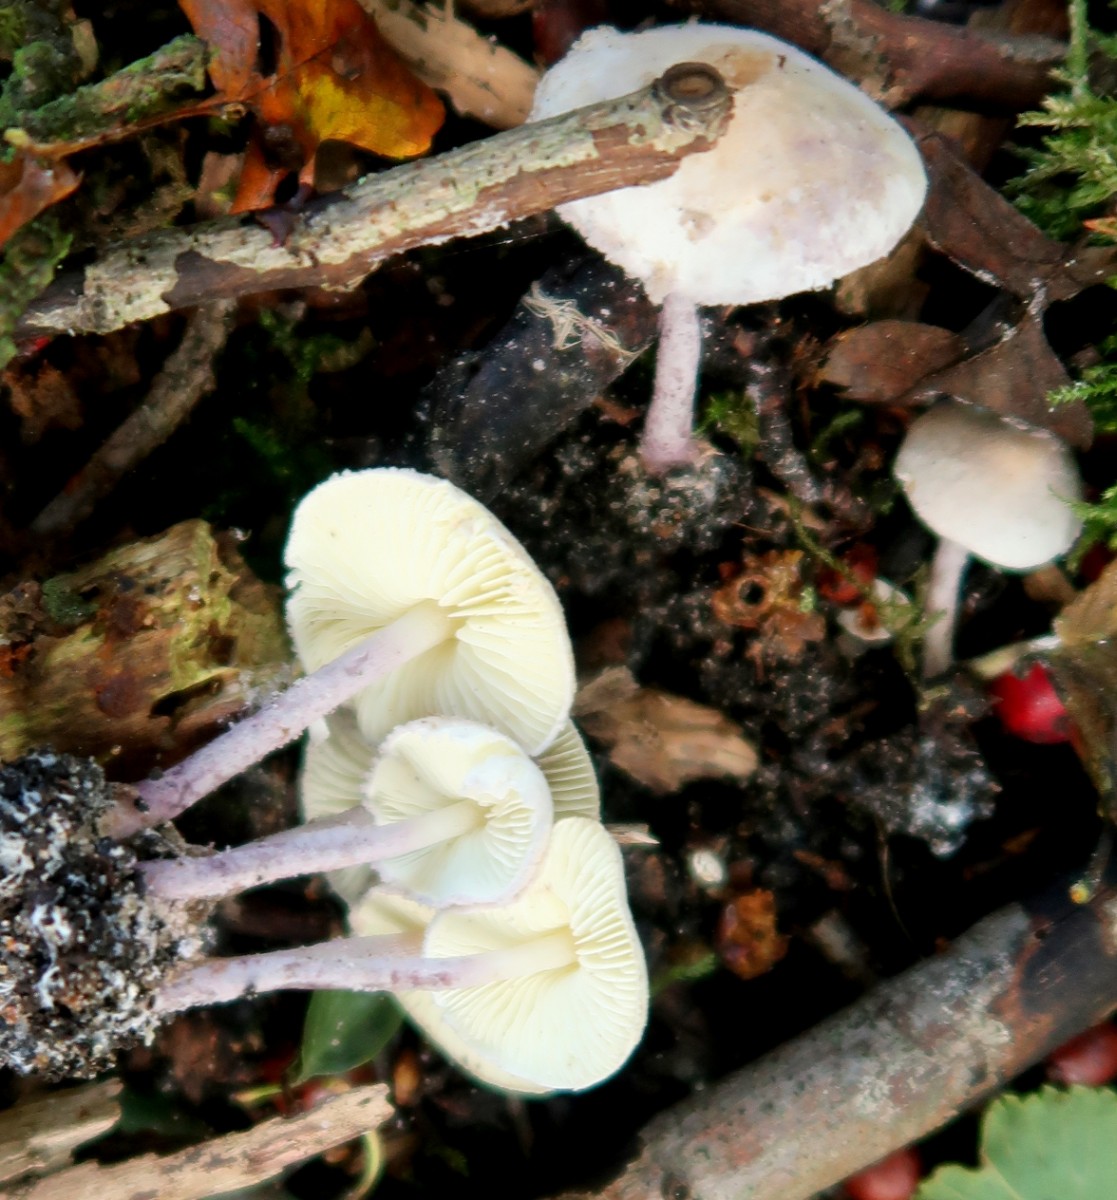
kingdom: Fungi
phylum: Basidiomycota
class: Agaricomycetes
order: Agaricales
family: Agaricaceae
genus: Cystolepiota
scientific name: Cystolepiota bucknallii
